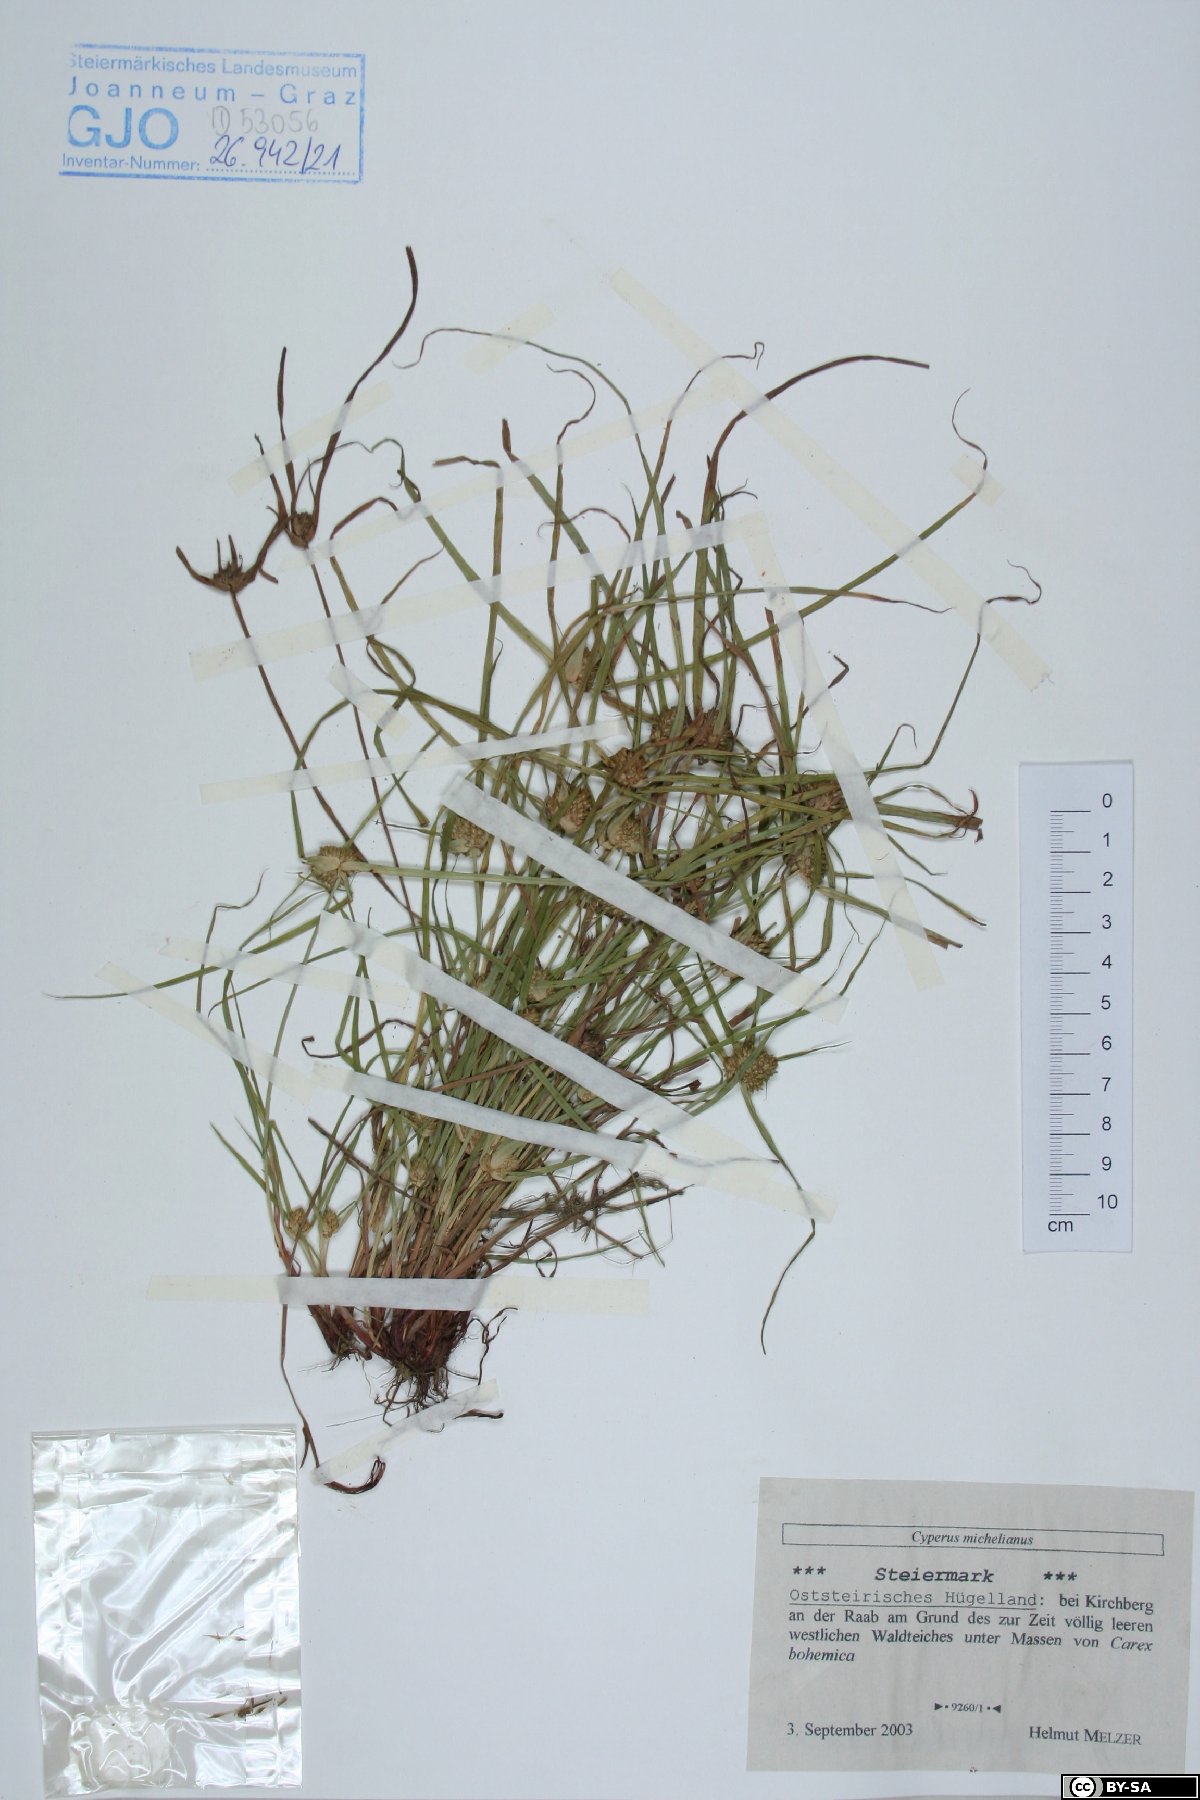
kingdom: Plantae
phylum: Tracheophyta
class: Liliopsida
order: Poales
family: Cyperaceae
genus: Cyperus
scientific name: Cyperus michelianus
